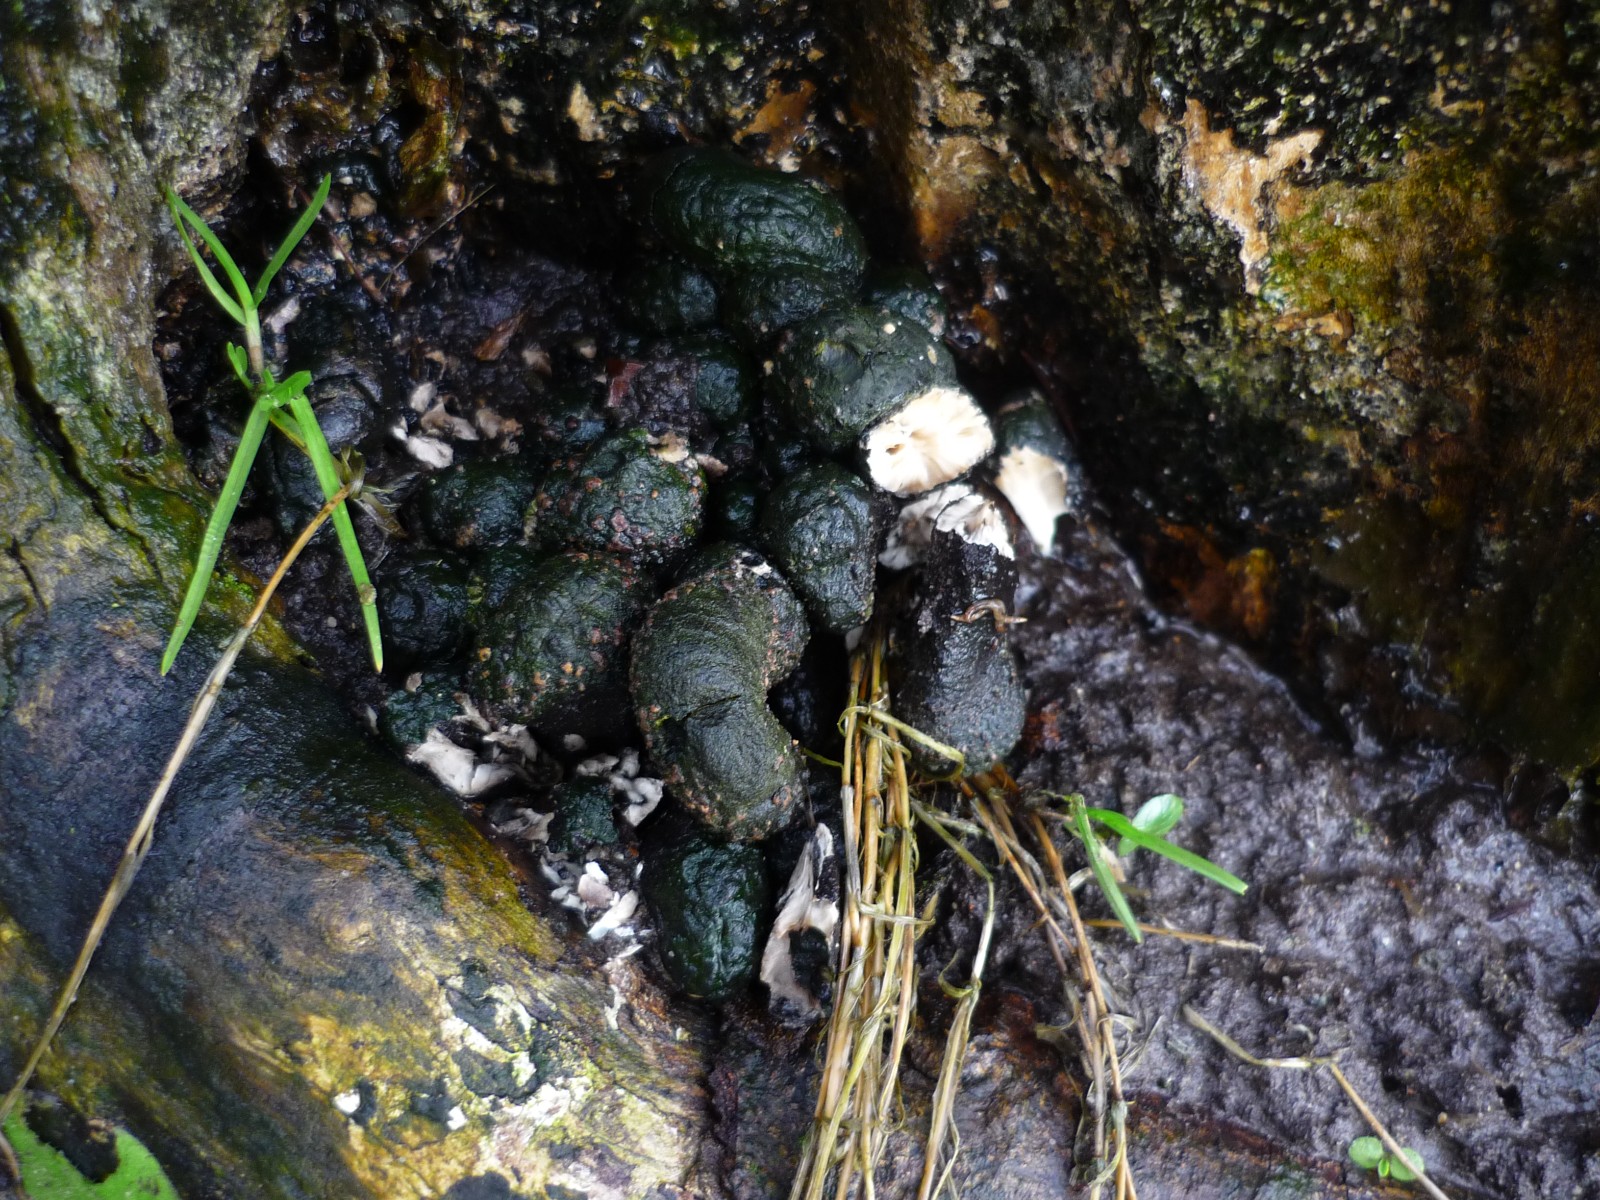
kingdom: Fungi
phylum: Ascomycota
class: Sordariomycetes
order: Xylariales
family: Xylariaceae
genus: Xylaria
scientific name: Xylaria polymorpha
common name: kølle-stødsvamp
